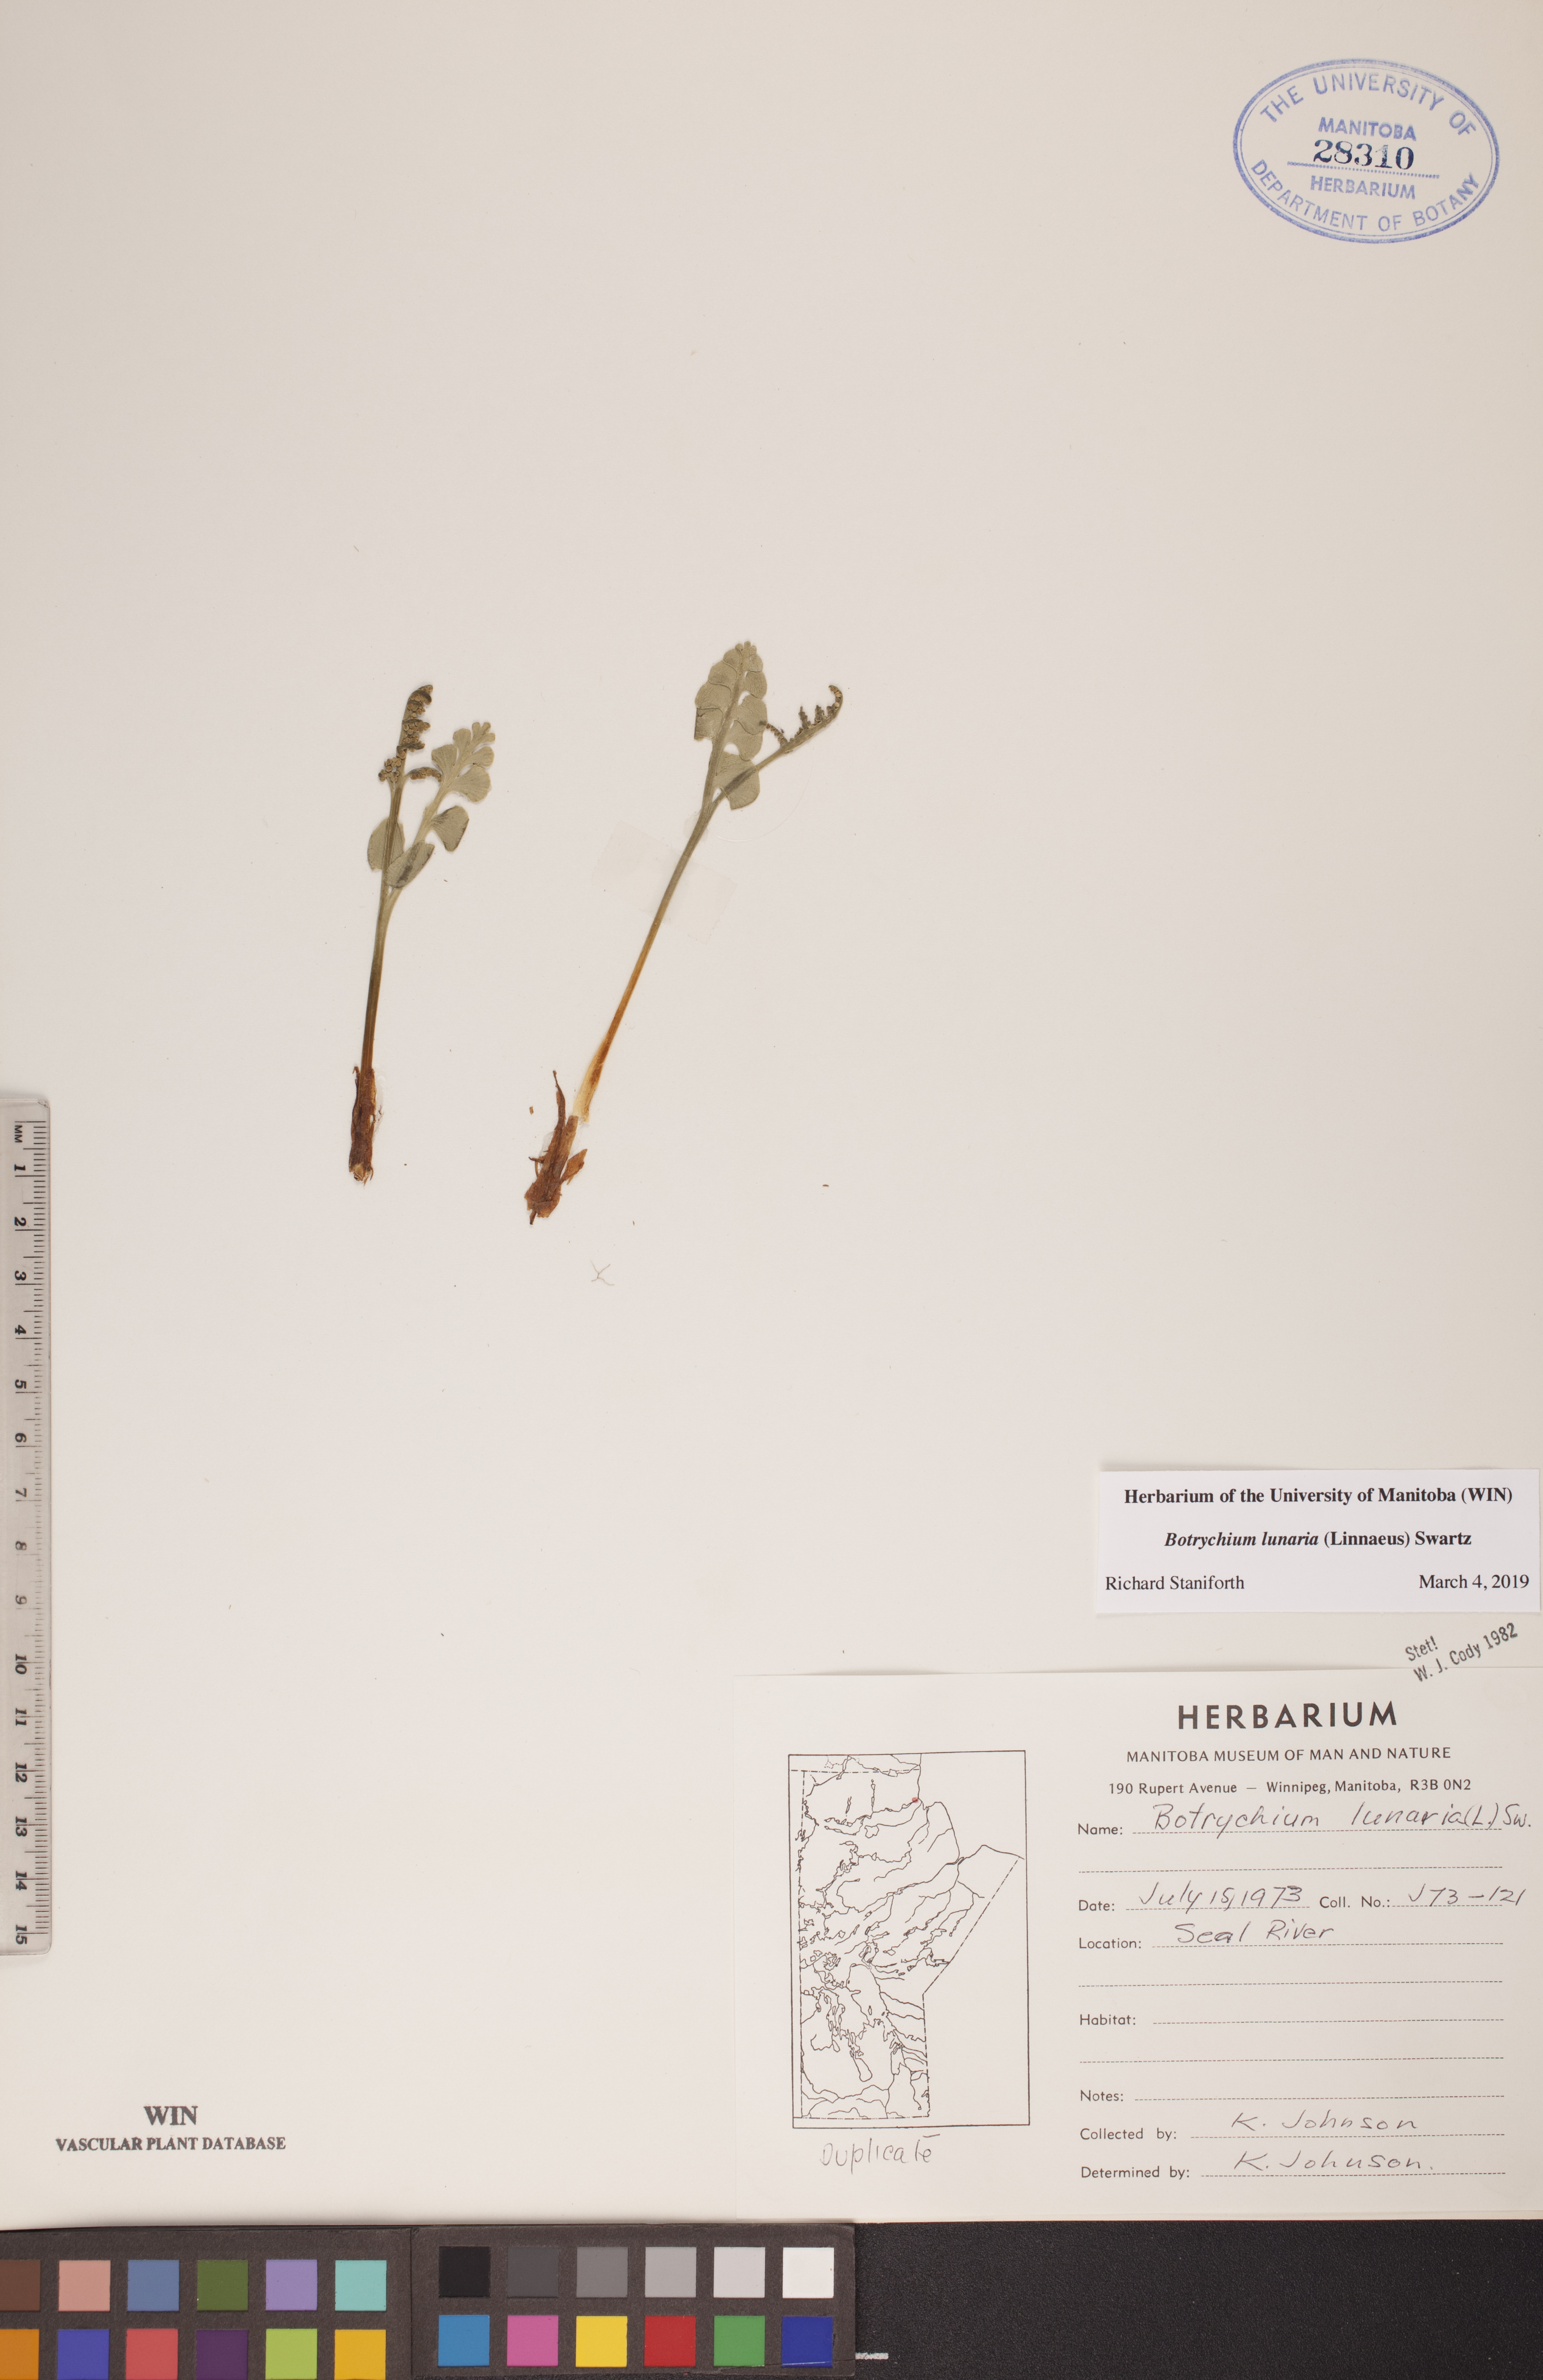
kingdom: Plantae
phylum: Tracheophyta
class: Polypodiopsida
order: Ophioglossales
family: Ophioglossaceae
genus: Botrychium
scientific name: Botrychium lunaria
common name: Moonwort
